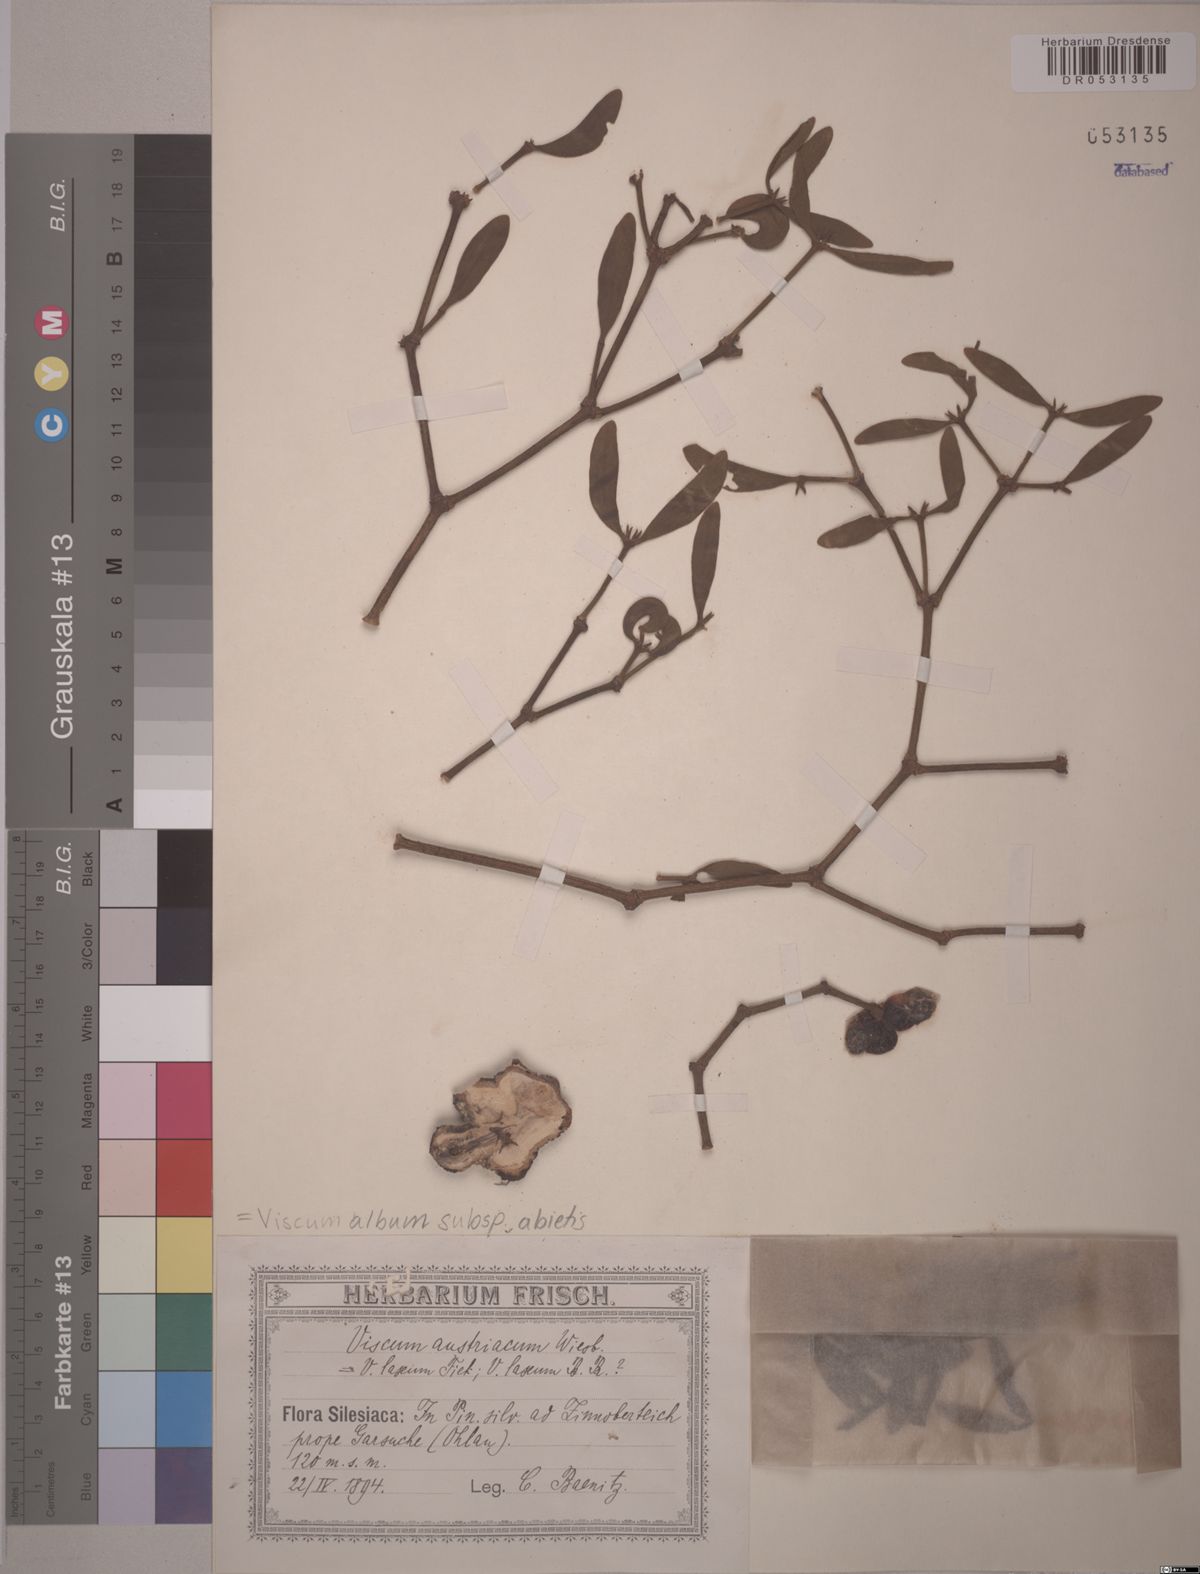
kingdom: Plantae
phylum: Tracheophyta
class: Magnoliopsida
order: Santalales
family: Viscaceae
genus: Viscum
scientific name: Viscum album
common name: Mistletoe
